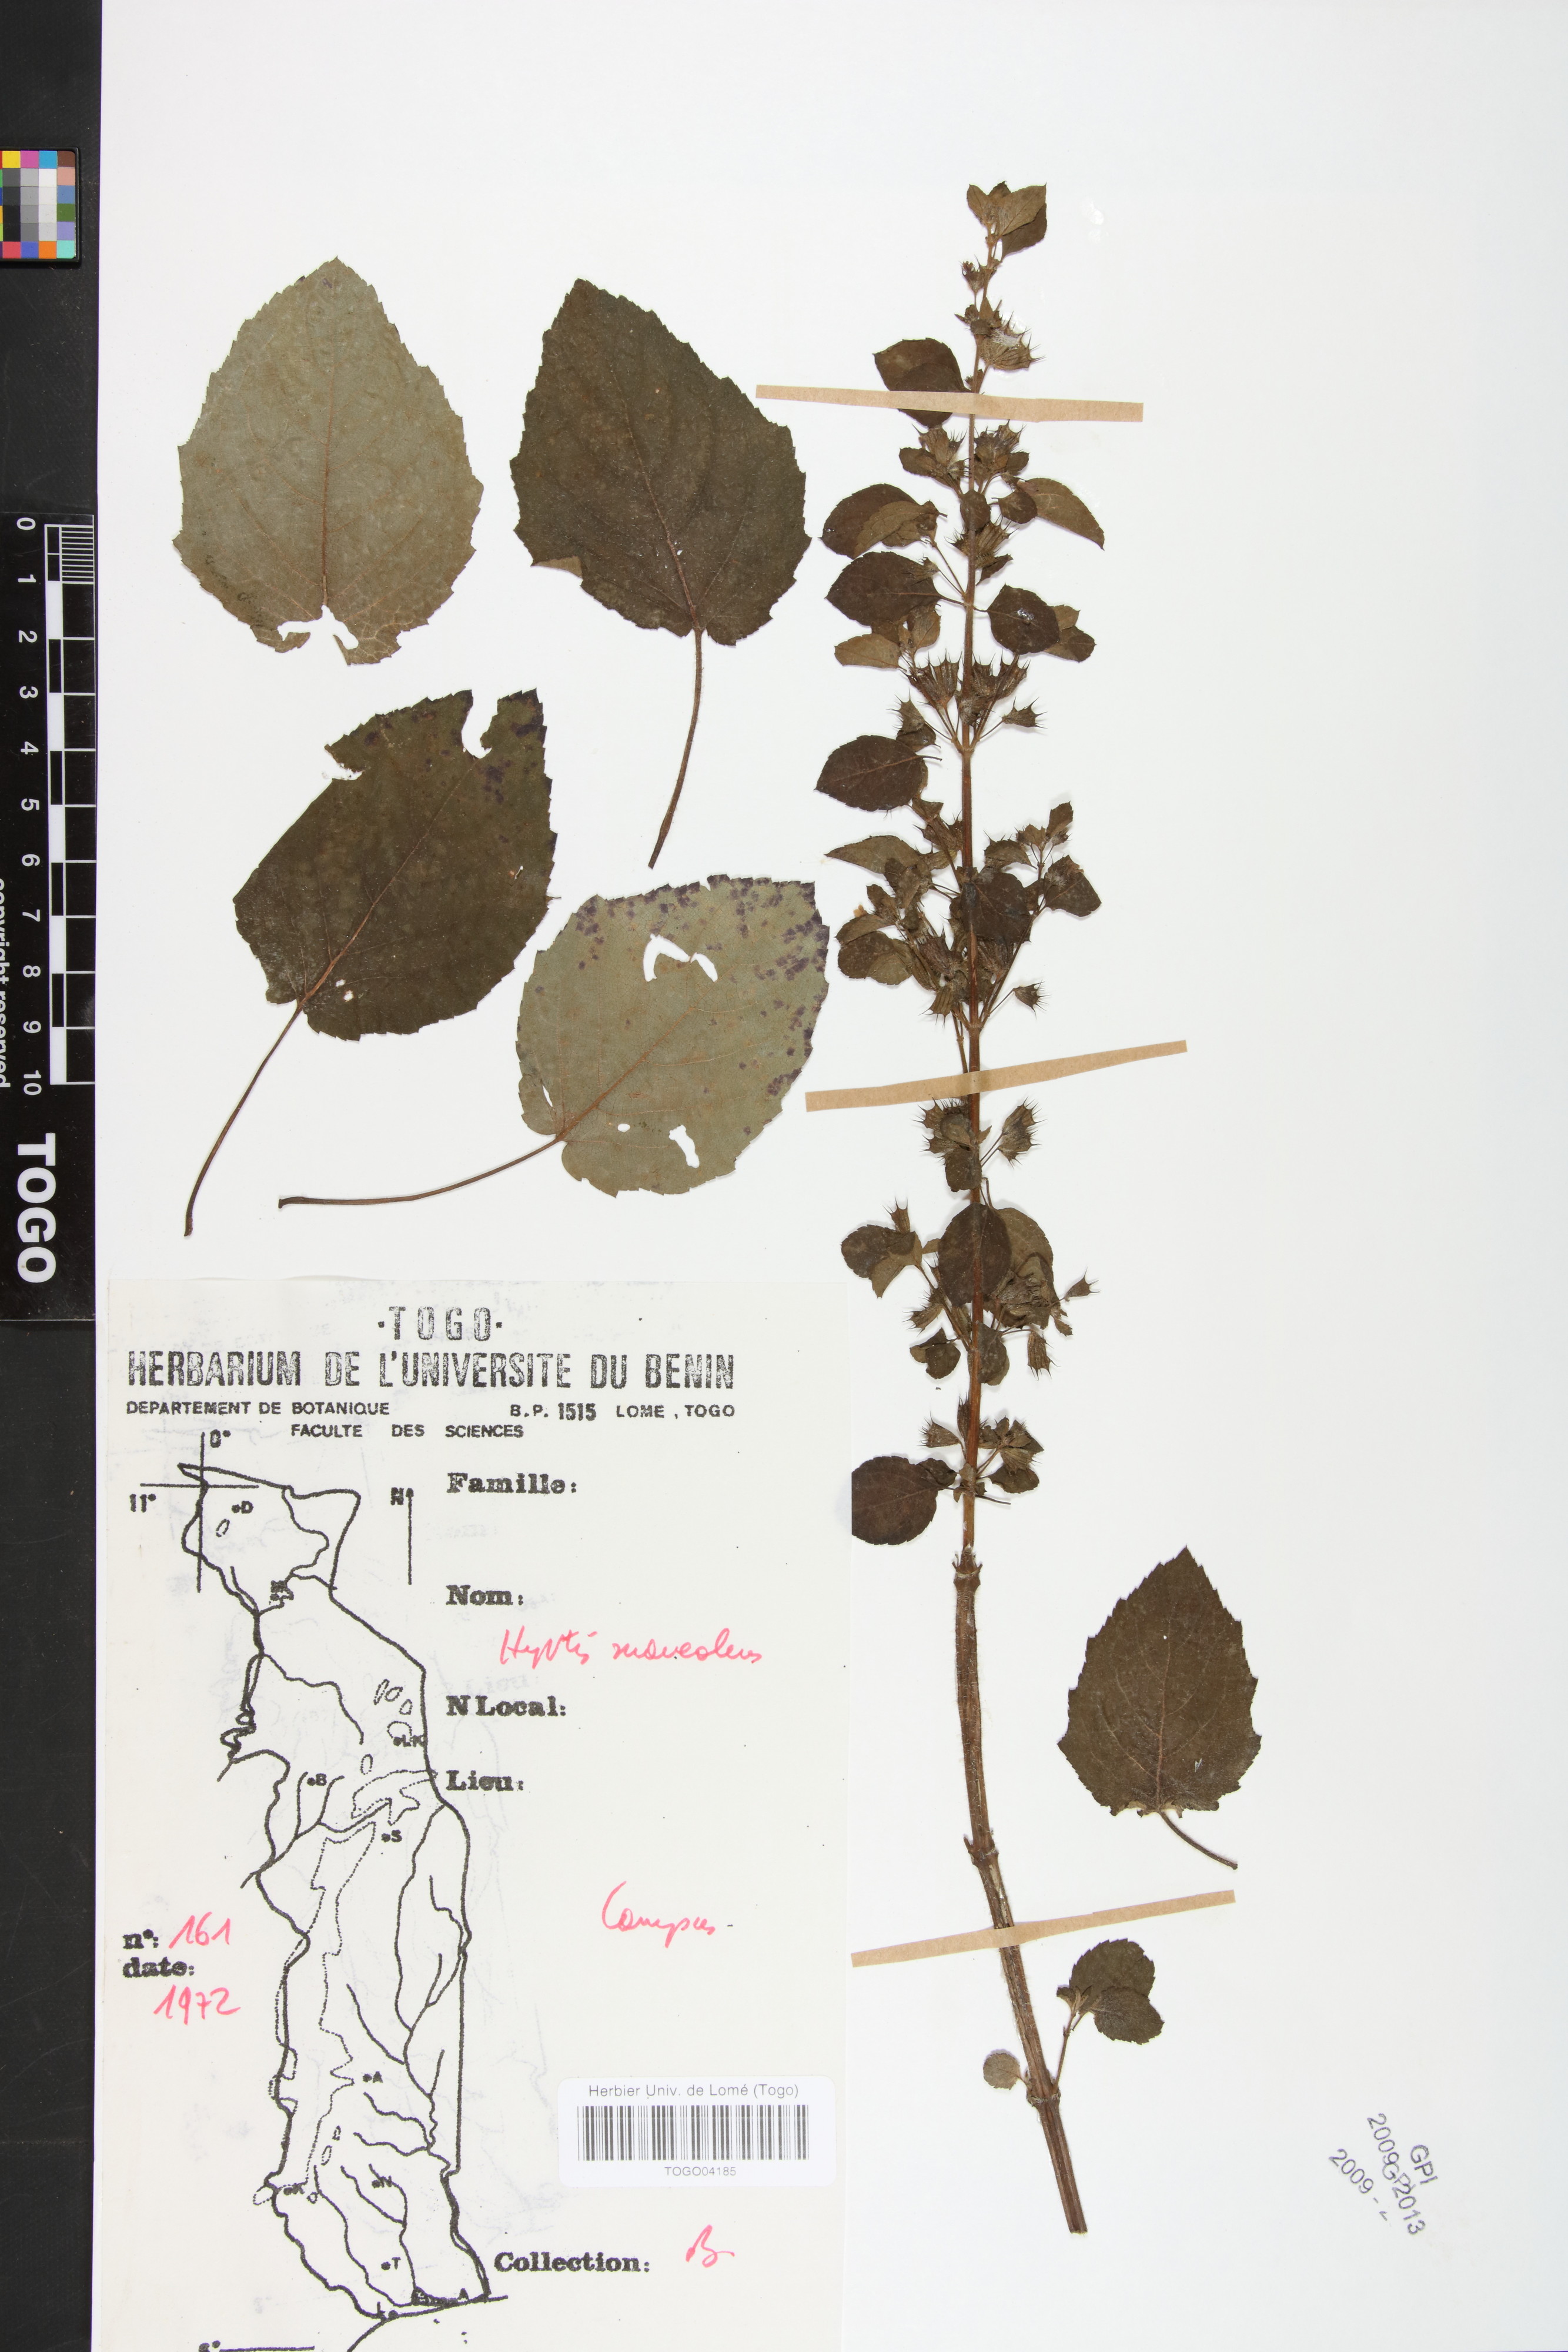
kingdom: Plantae
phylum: Tracheophyta
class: Magnoliopsida
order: Lamiales
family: Lamiaceae
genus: Mesosphaerum
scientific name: Mesosphaerum suaveolens
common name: Pignut
